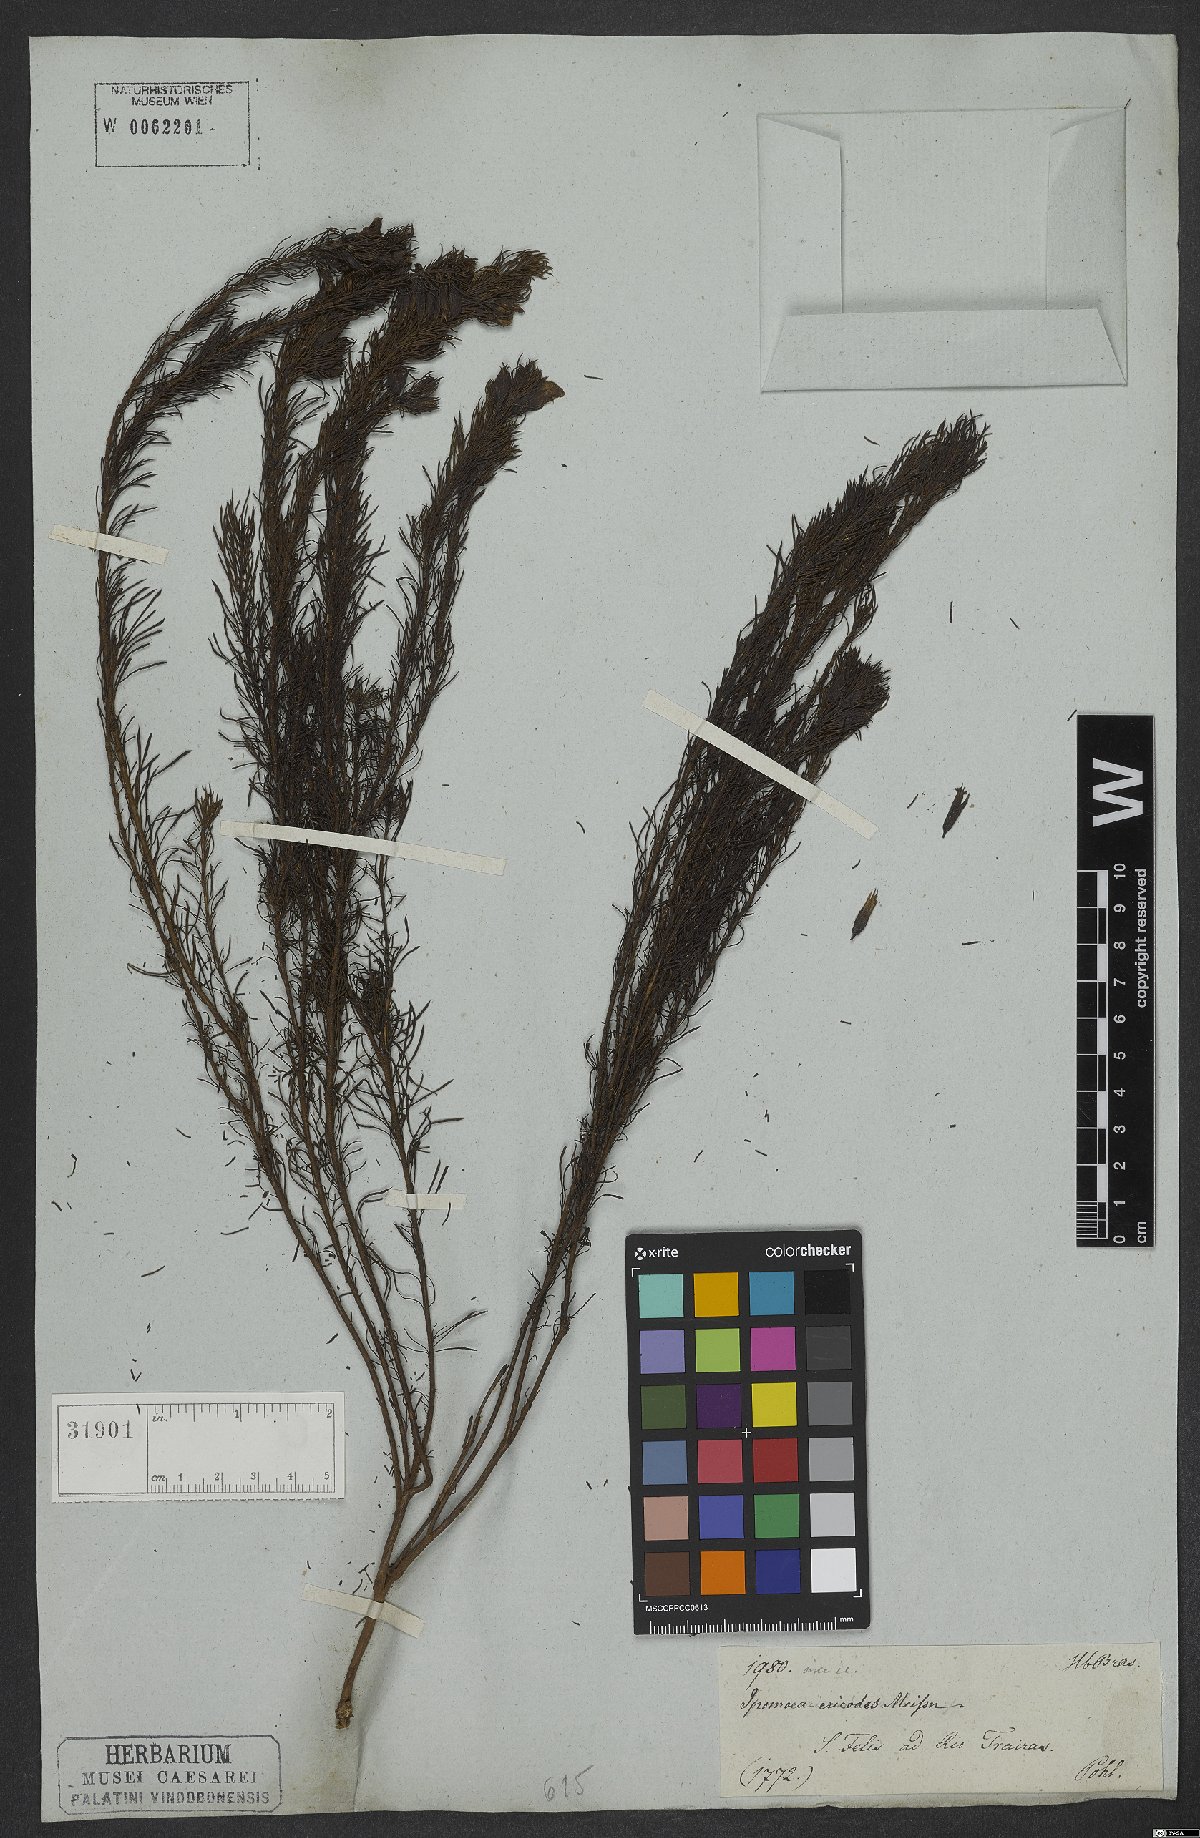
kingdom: Plantae
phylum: Tracheophyta
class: Magnoliopsida
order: Solanales
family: Convolvulaceae
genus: Distimake
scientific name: Distimake ericoides
